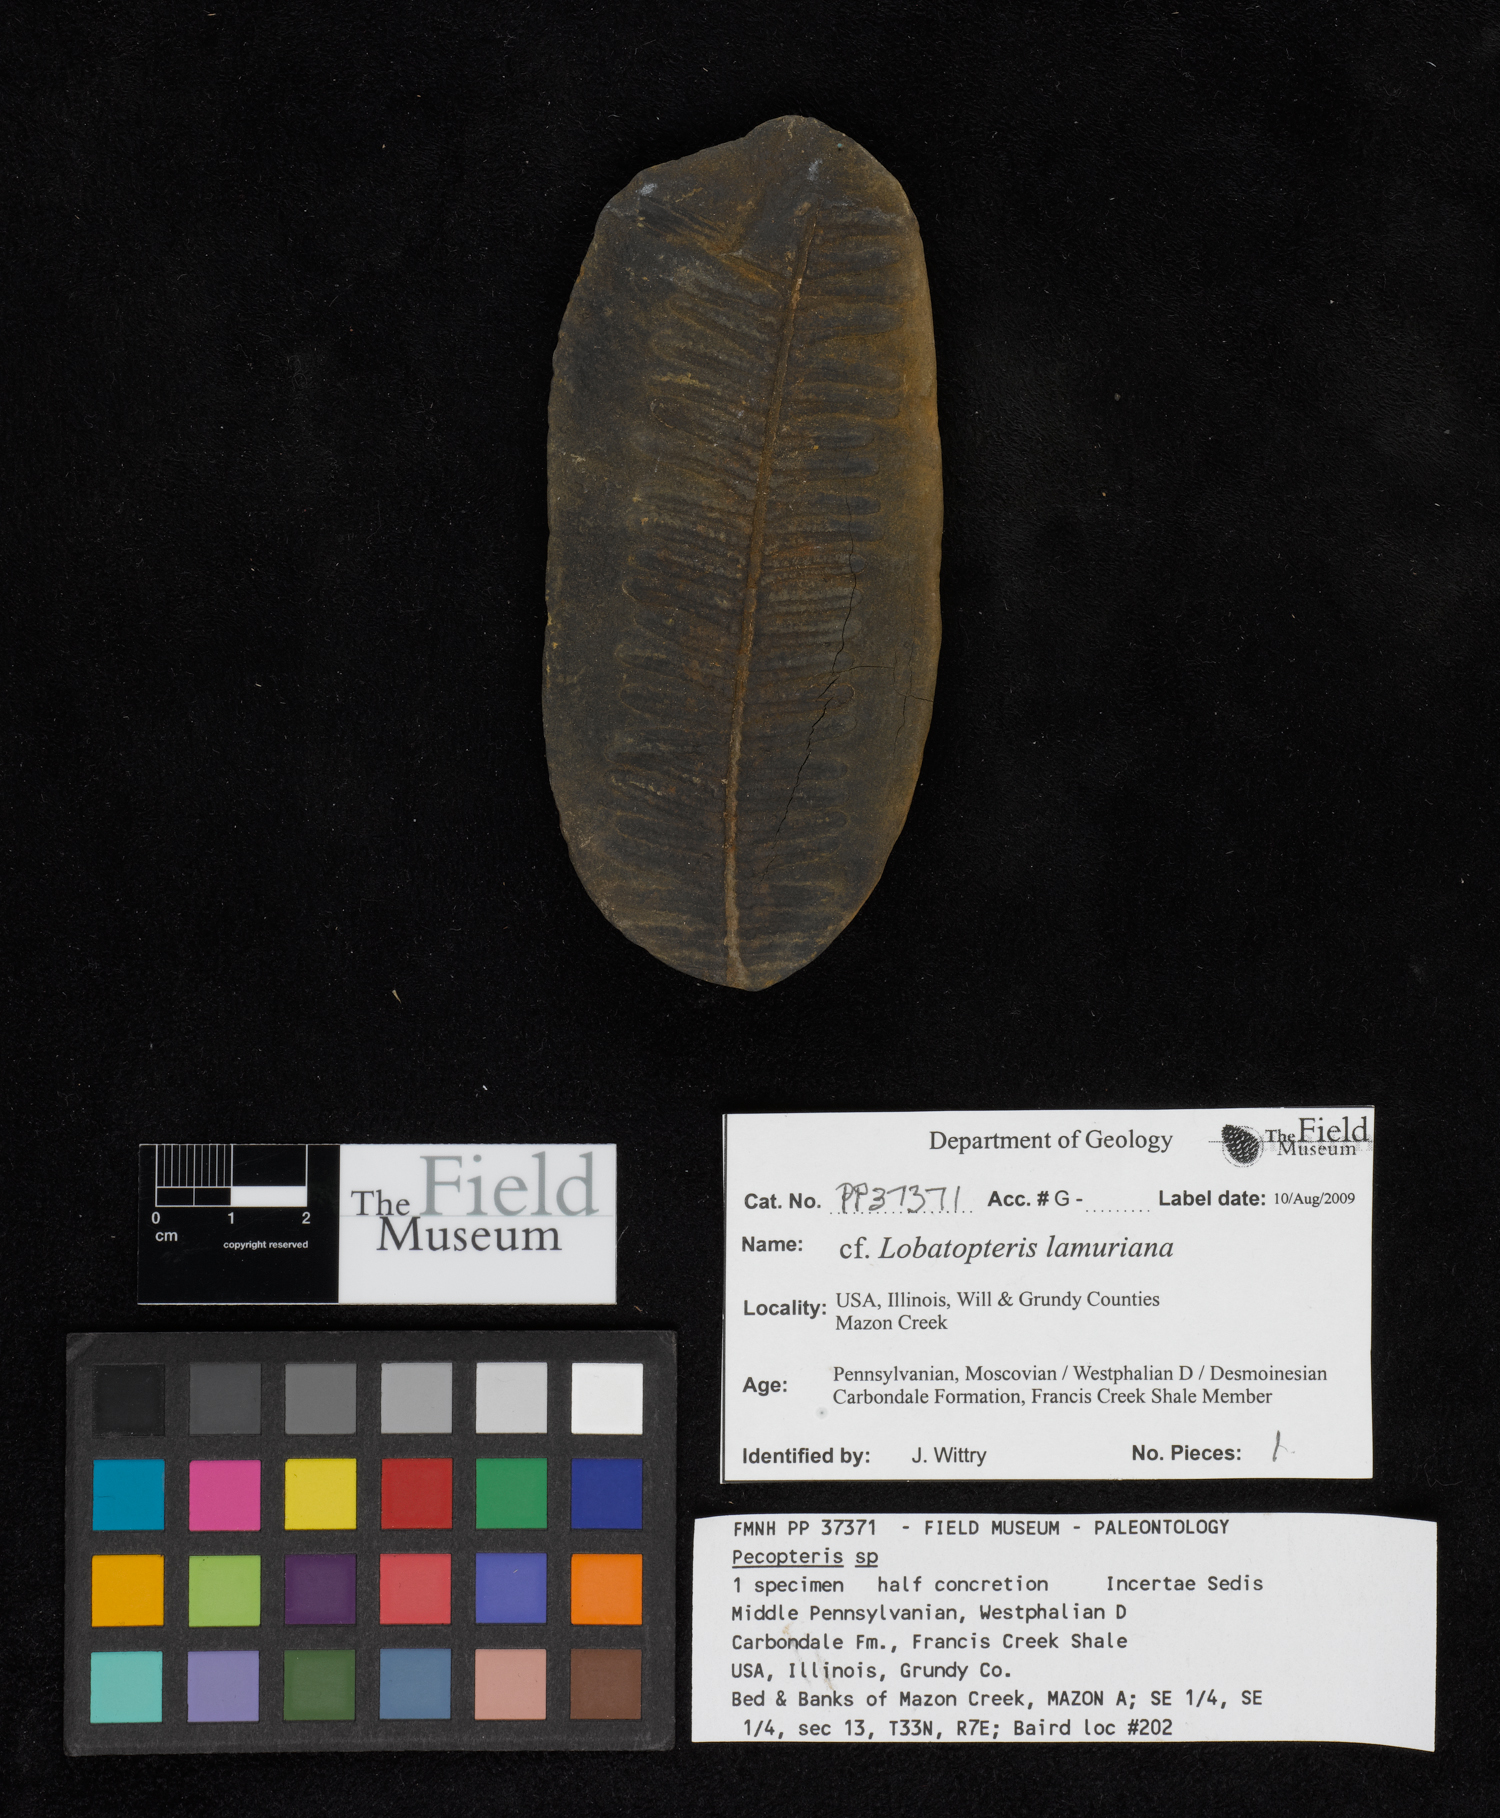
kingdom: Plantae
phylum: Tracheophyta
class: Polypodiopsida
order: Marattiales
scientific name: Marattiales
